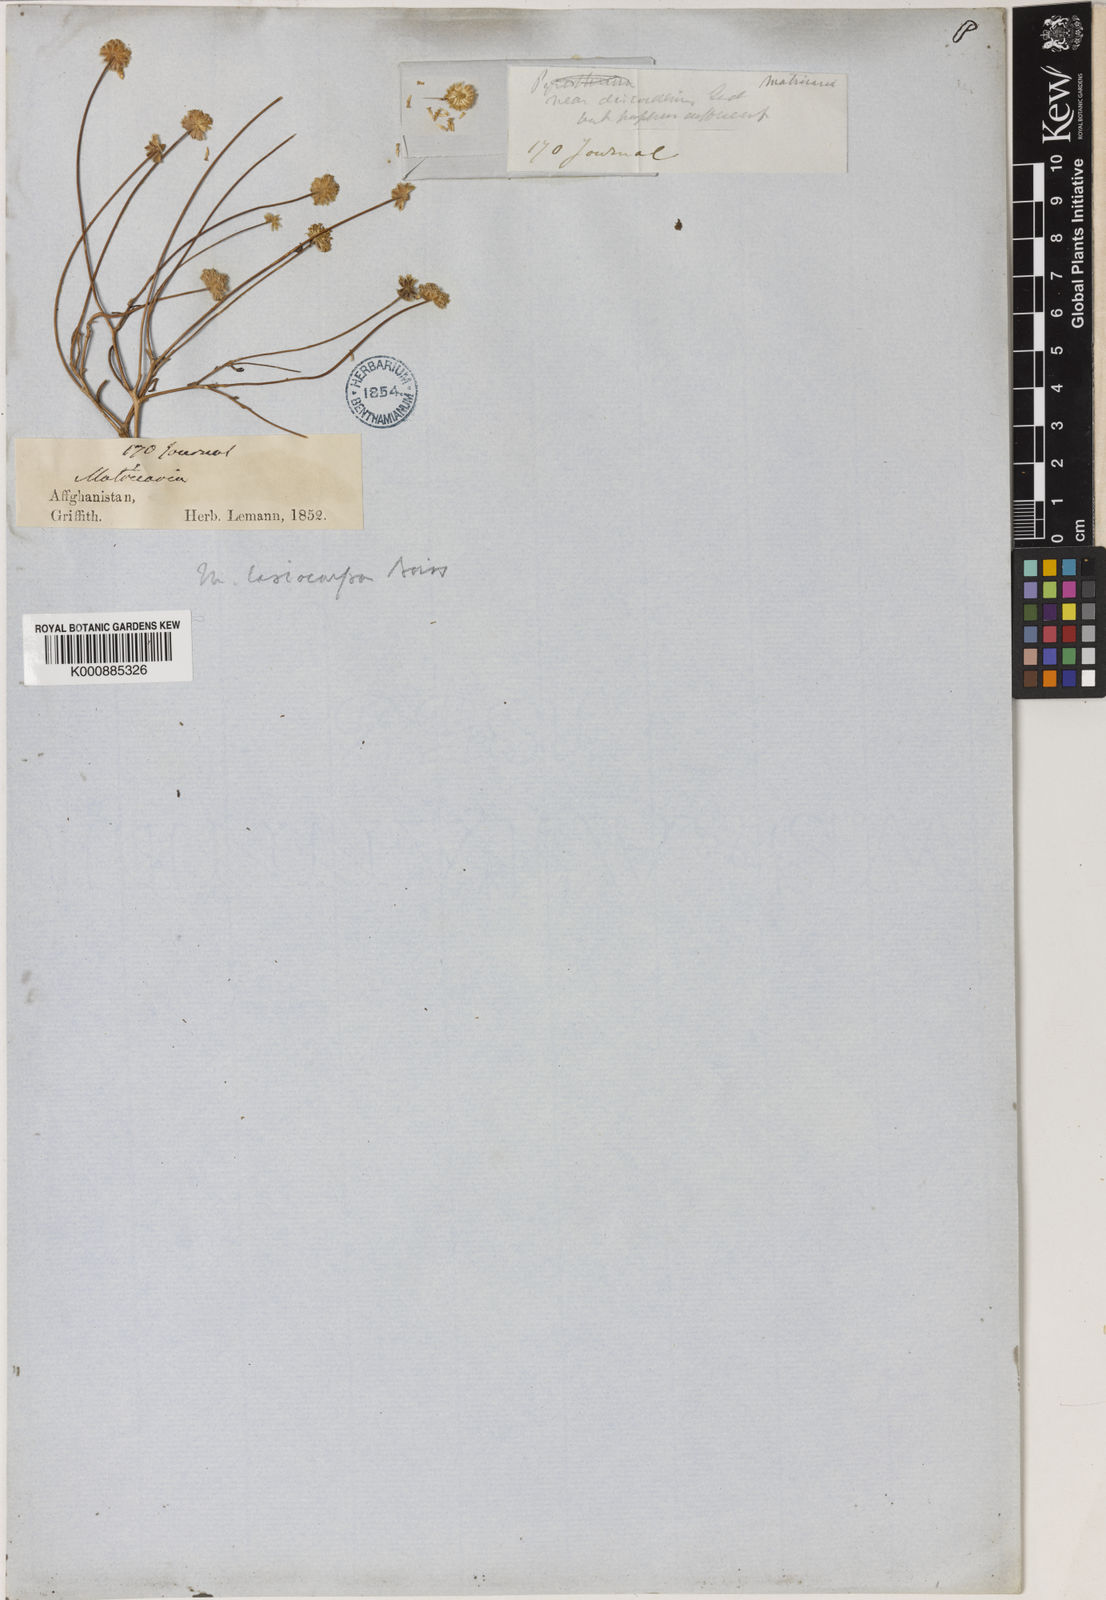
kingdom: Plantae
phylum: Tracheophyta
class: Magnoliopsida
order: Asterales
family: Asteraceae
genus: Microcephala
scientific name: Microcephala lamellata
